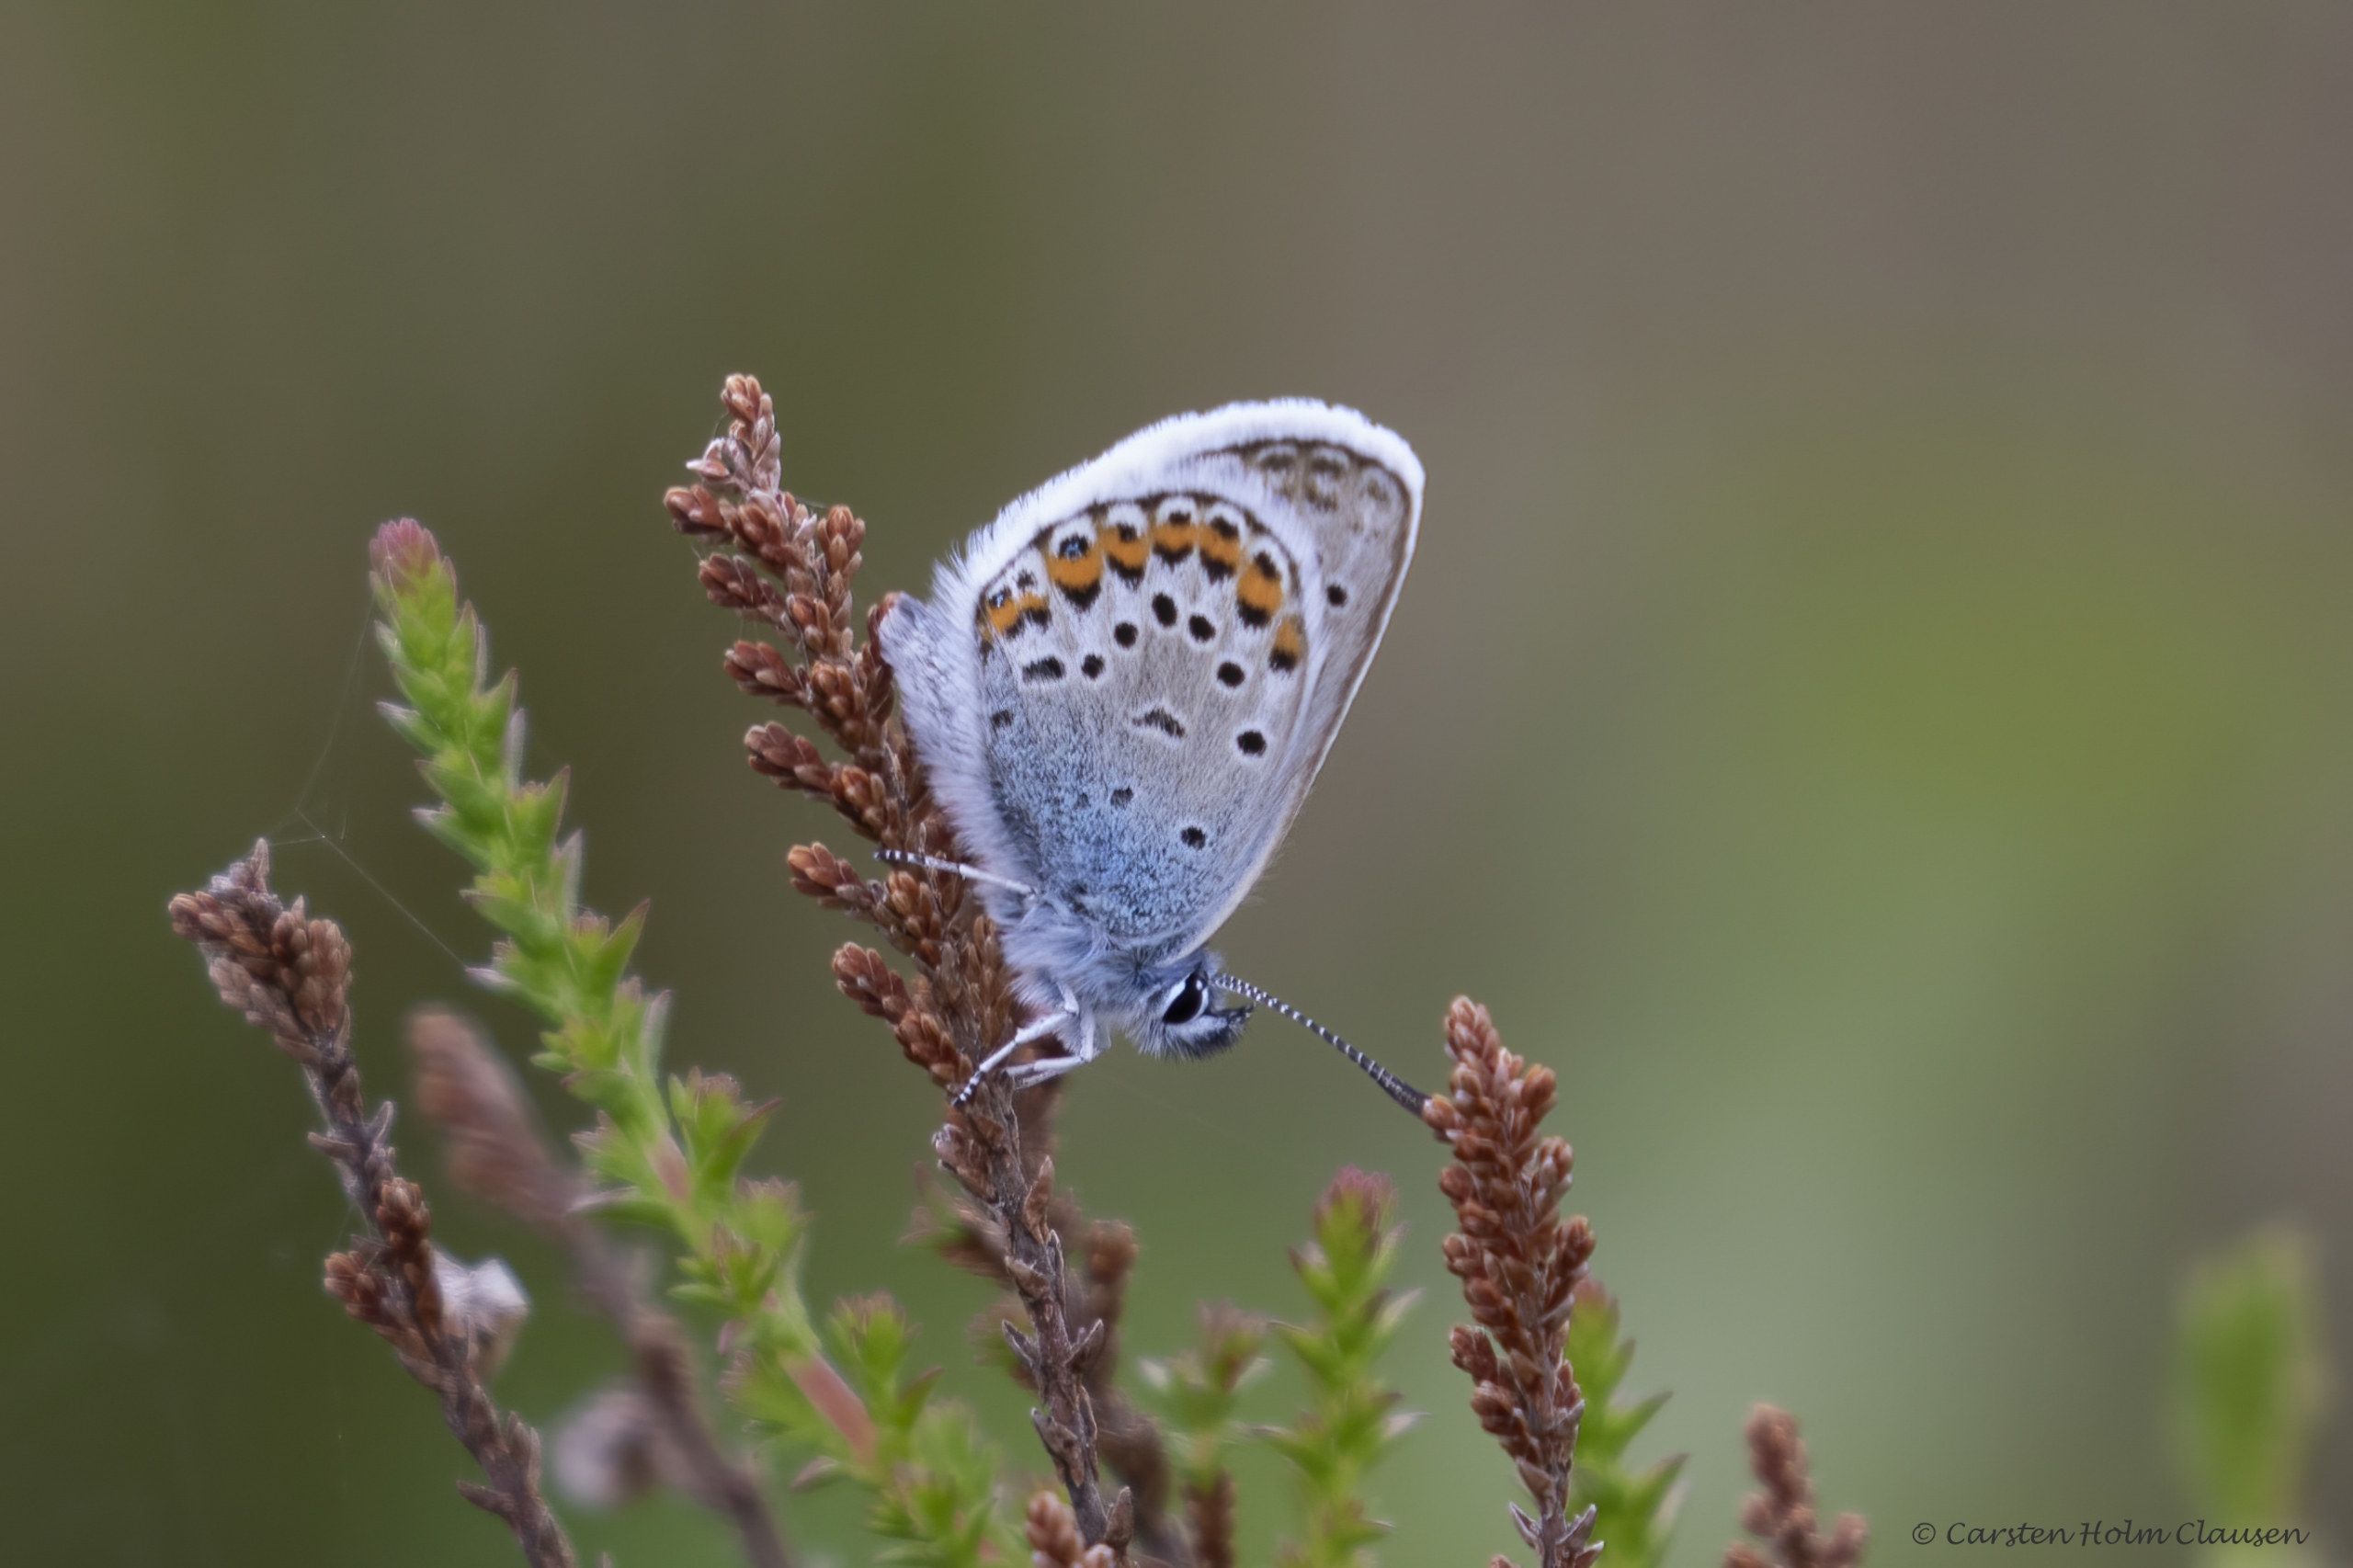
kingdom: Animalia
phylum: Arthropoda
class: Insecta
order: Lepidoptera
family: Lycaenidae
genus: Plebejus
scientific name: Plebejus argus
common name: Argusblåfugl
